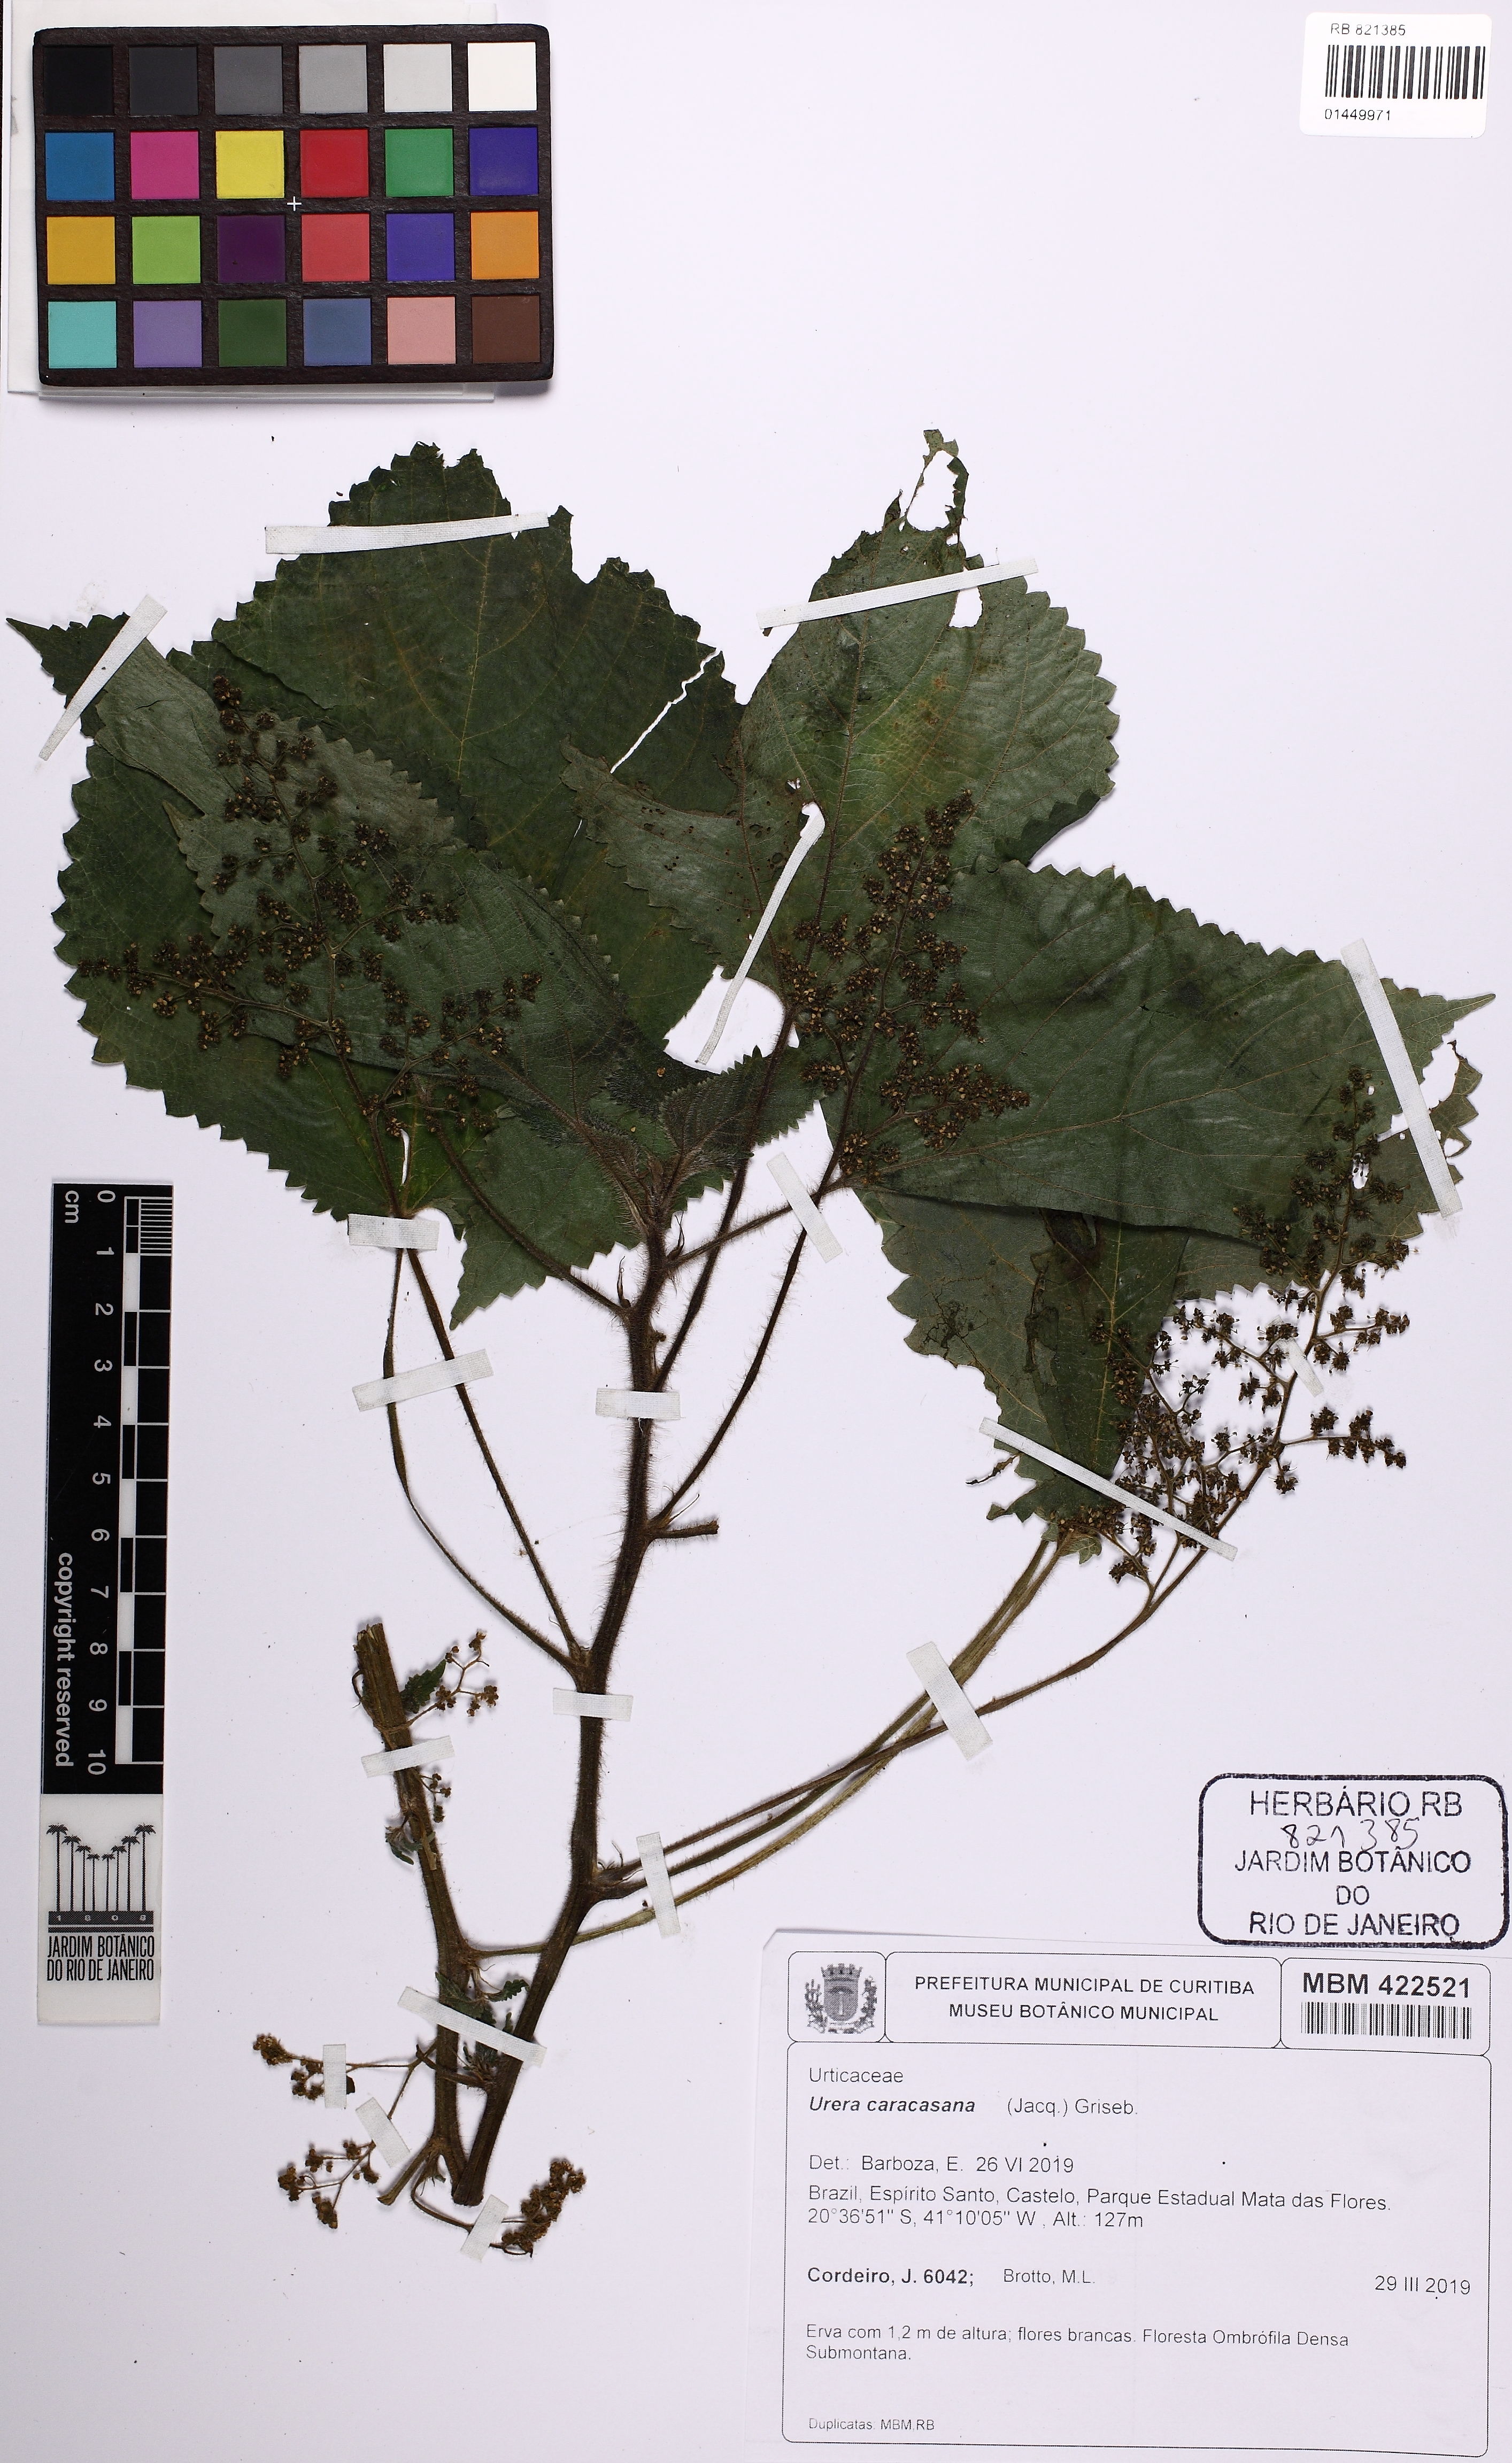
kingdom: Plantae
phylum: Tracheophyta
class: Magnoliopsida
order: Rosales
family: Urticaceae
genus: Urera
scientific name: Urera caracasana
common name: Flameberry
